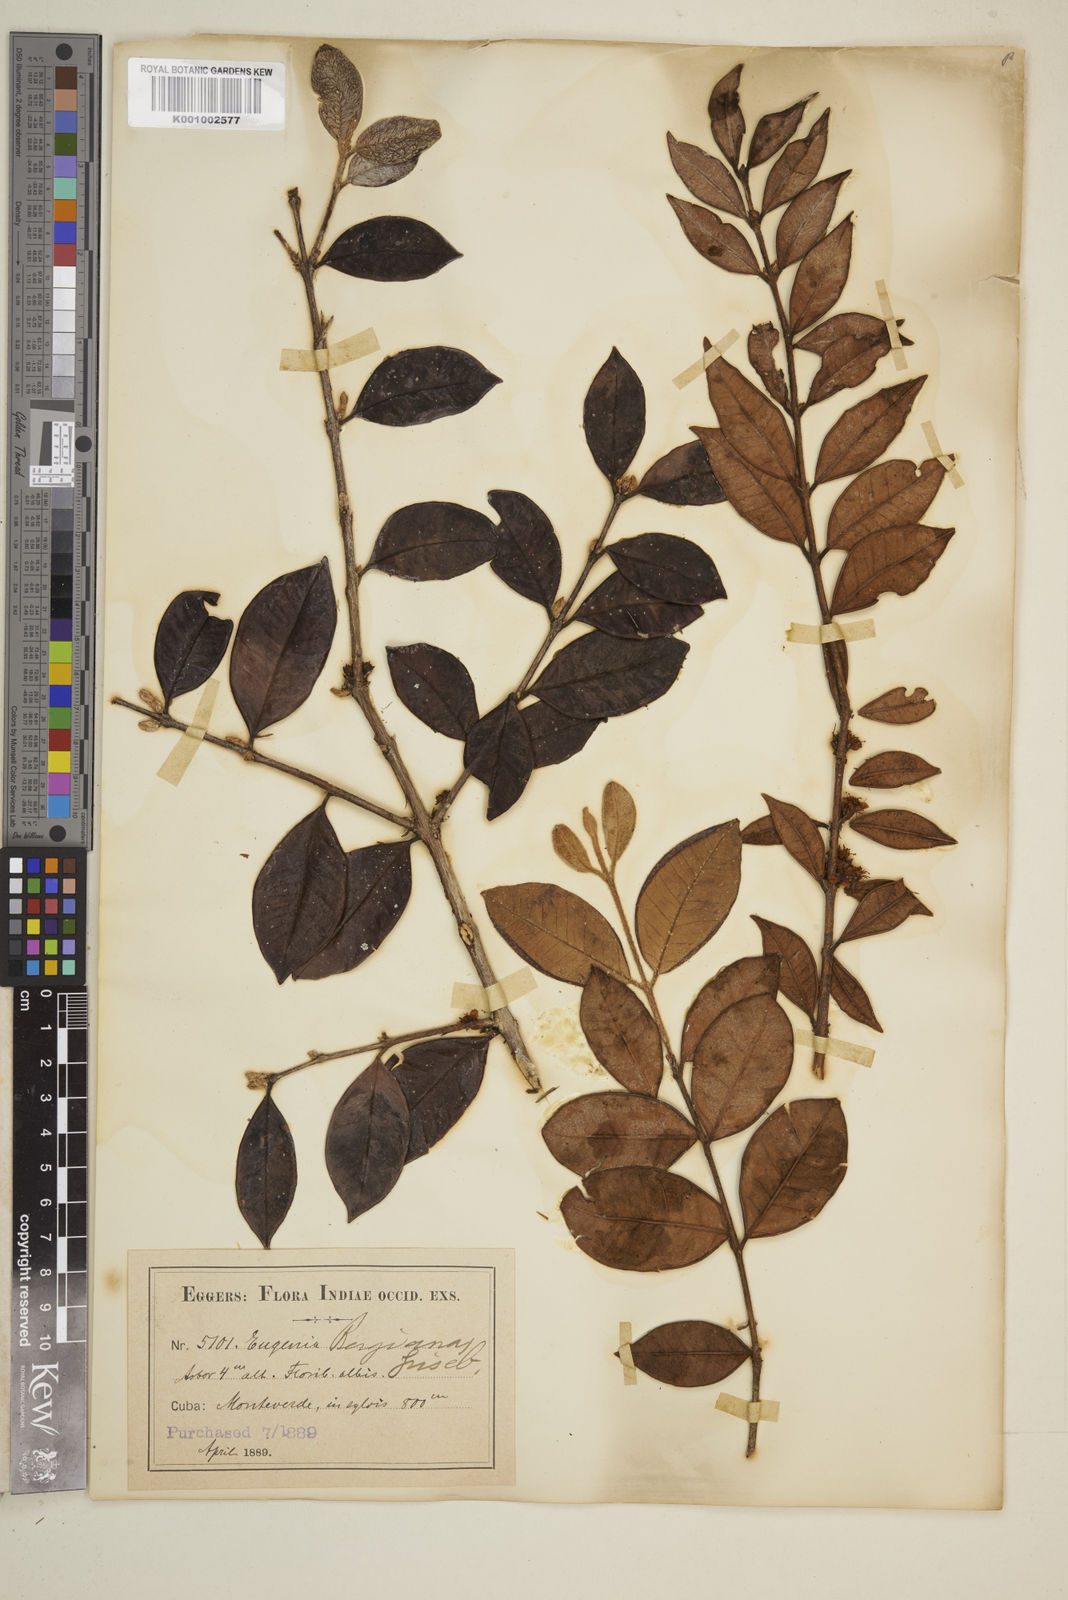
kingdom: Plantae
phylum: Tracheophyta
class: Magnoliopsida
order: Myrtales
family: Myrtaceae
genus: Eugenia
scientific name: Eugenia
